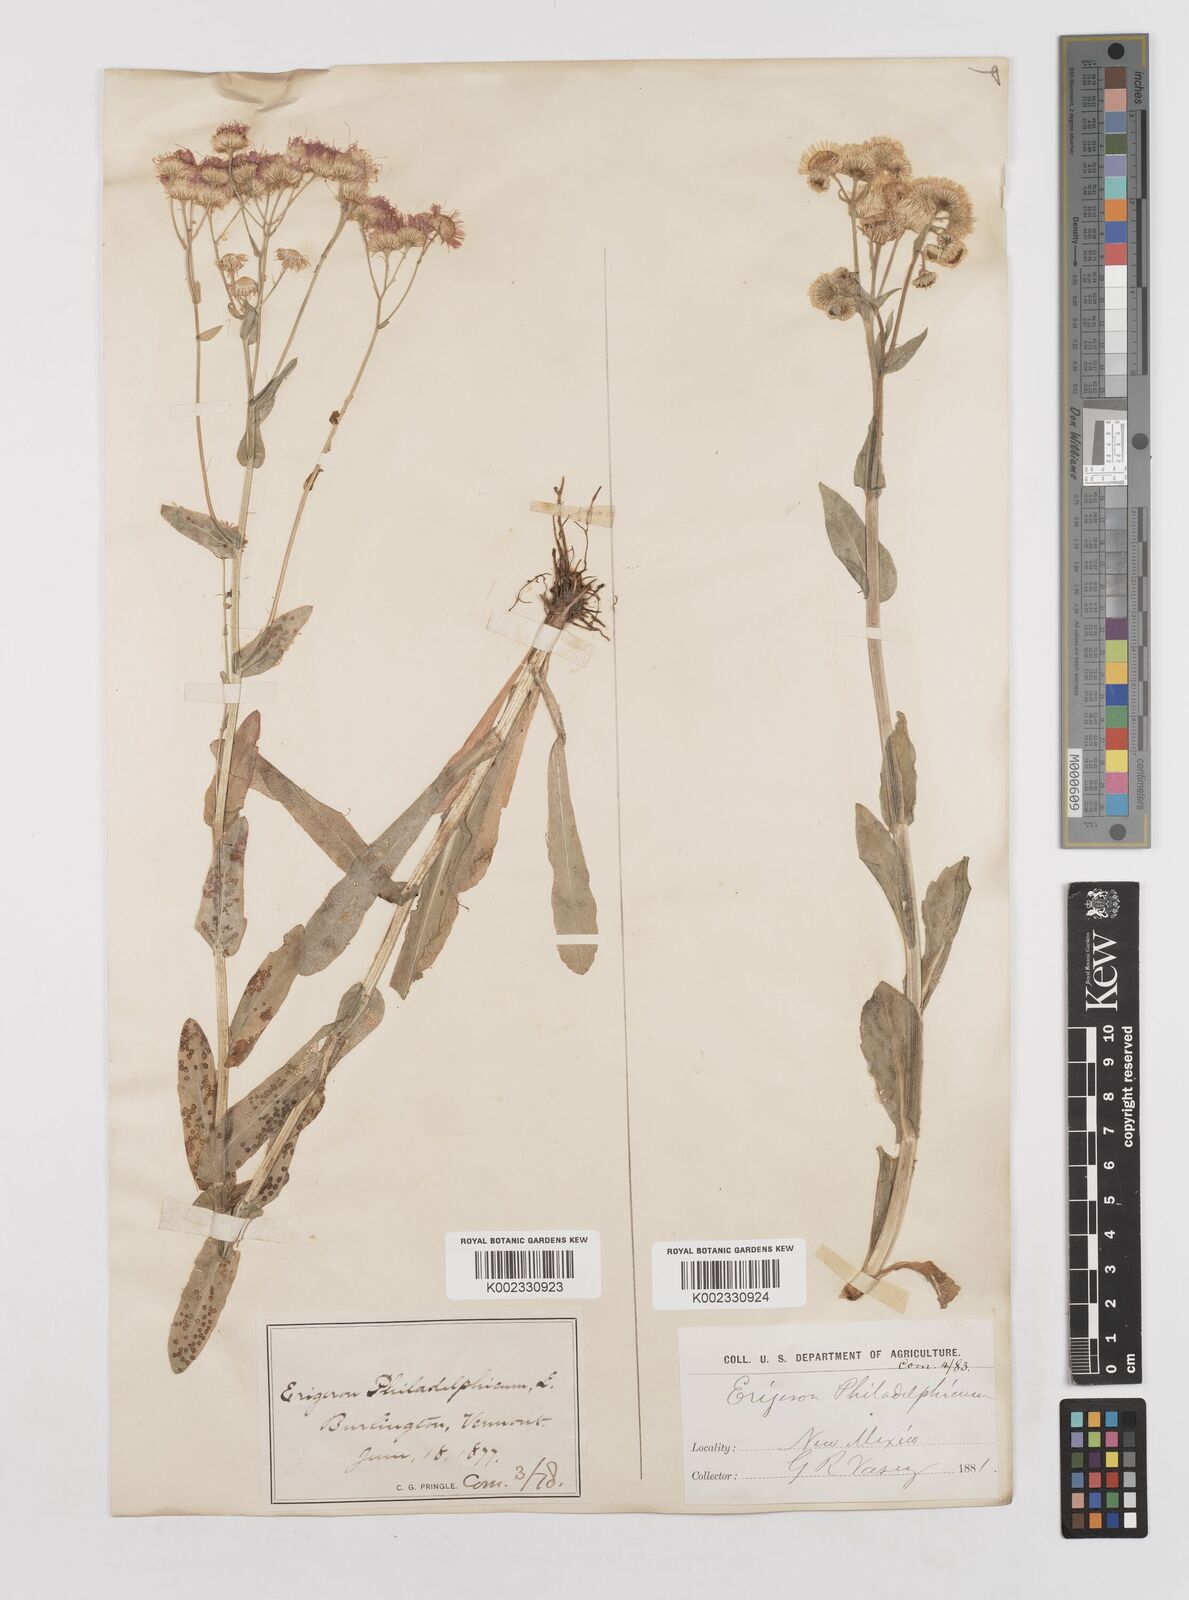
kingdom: Plantae
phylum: Tracheophyta
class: Magnoliopsida
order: Asterales
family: Asteraceae
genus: Erigeron
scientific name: Erigeron philadelphicus
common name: Robin's-plantain
